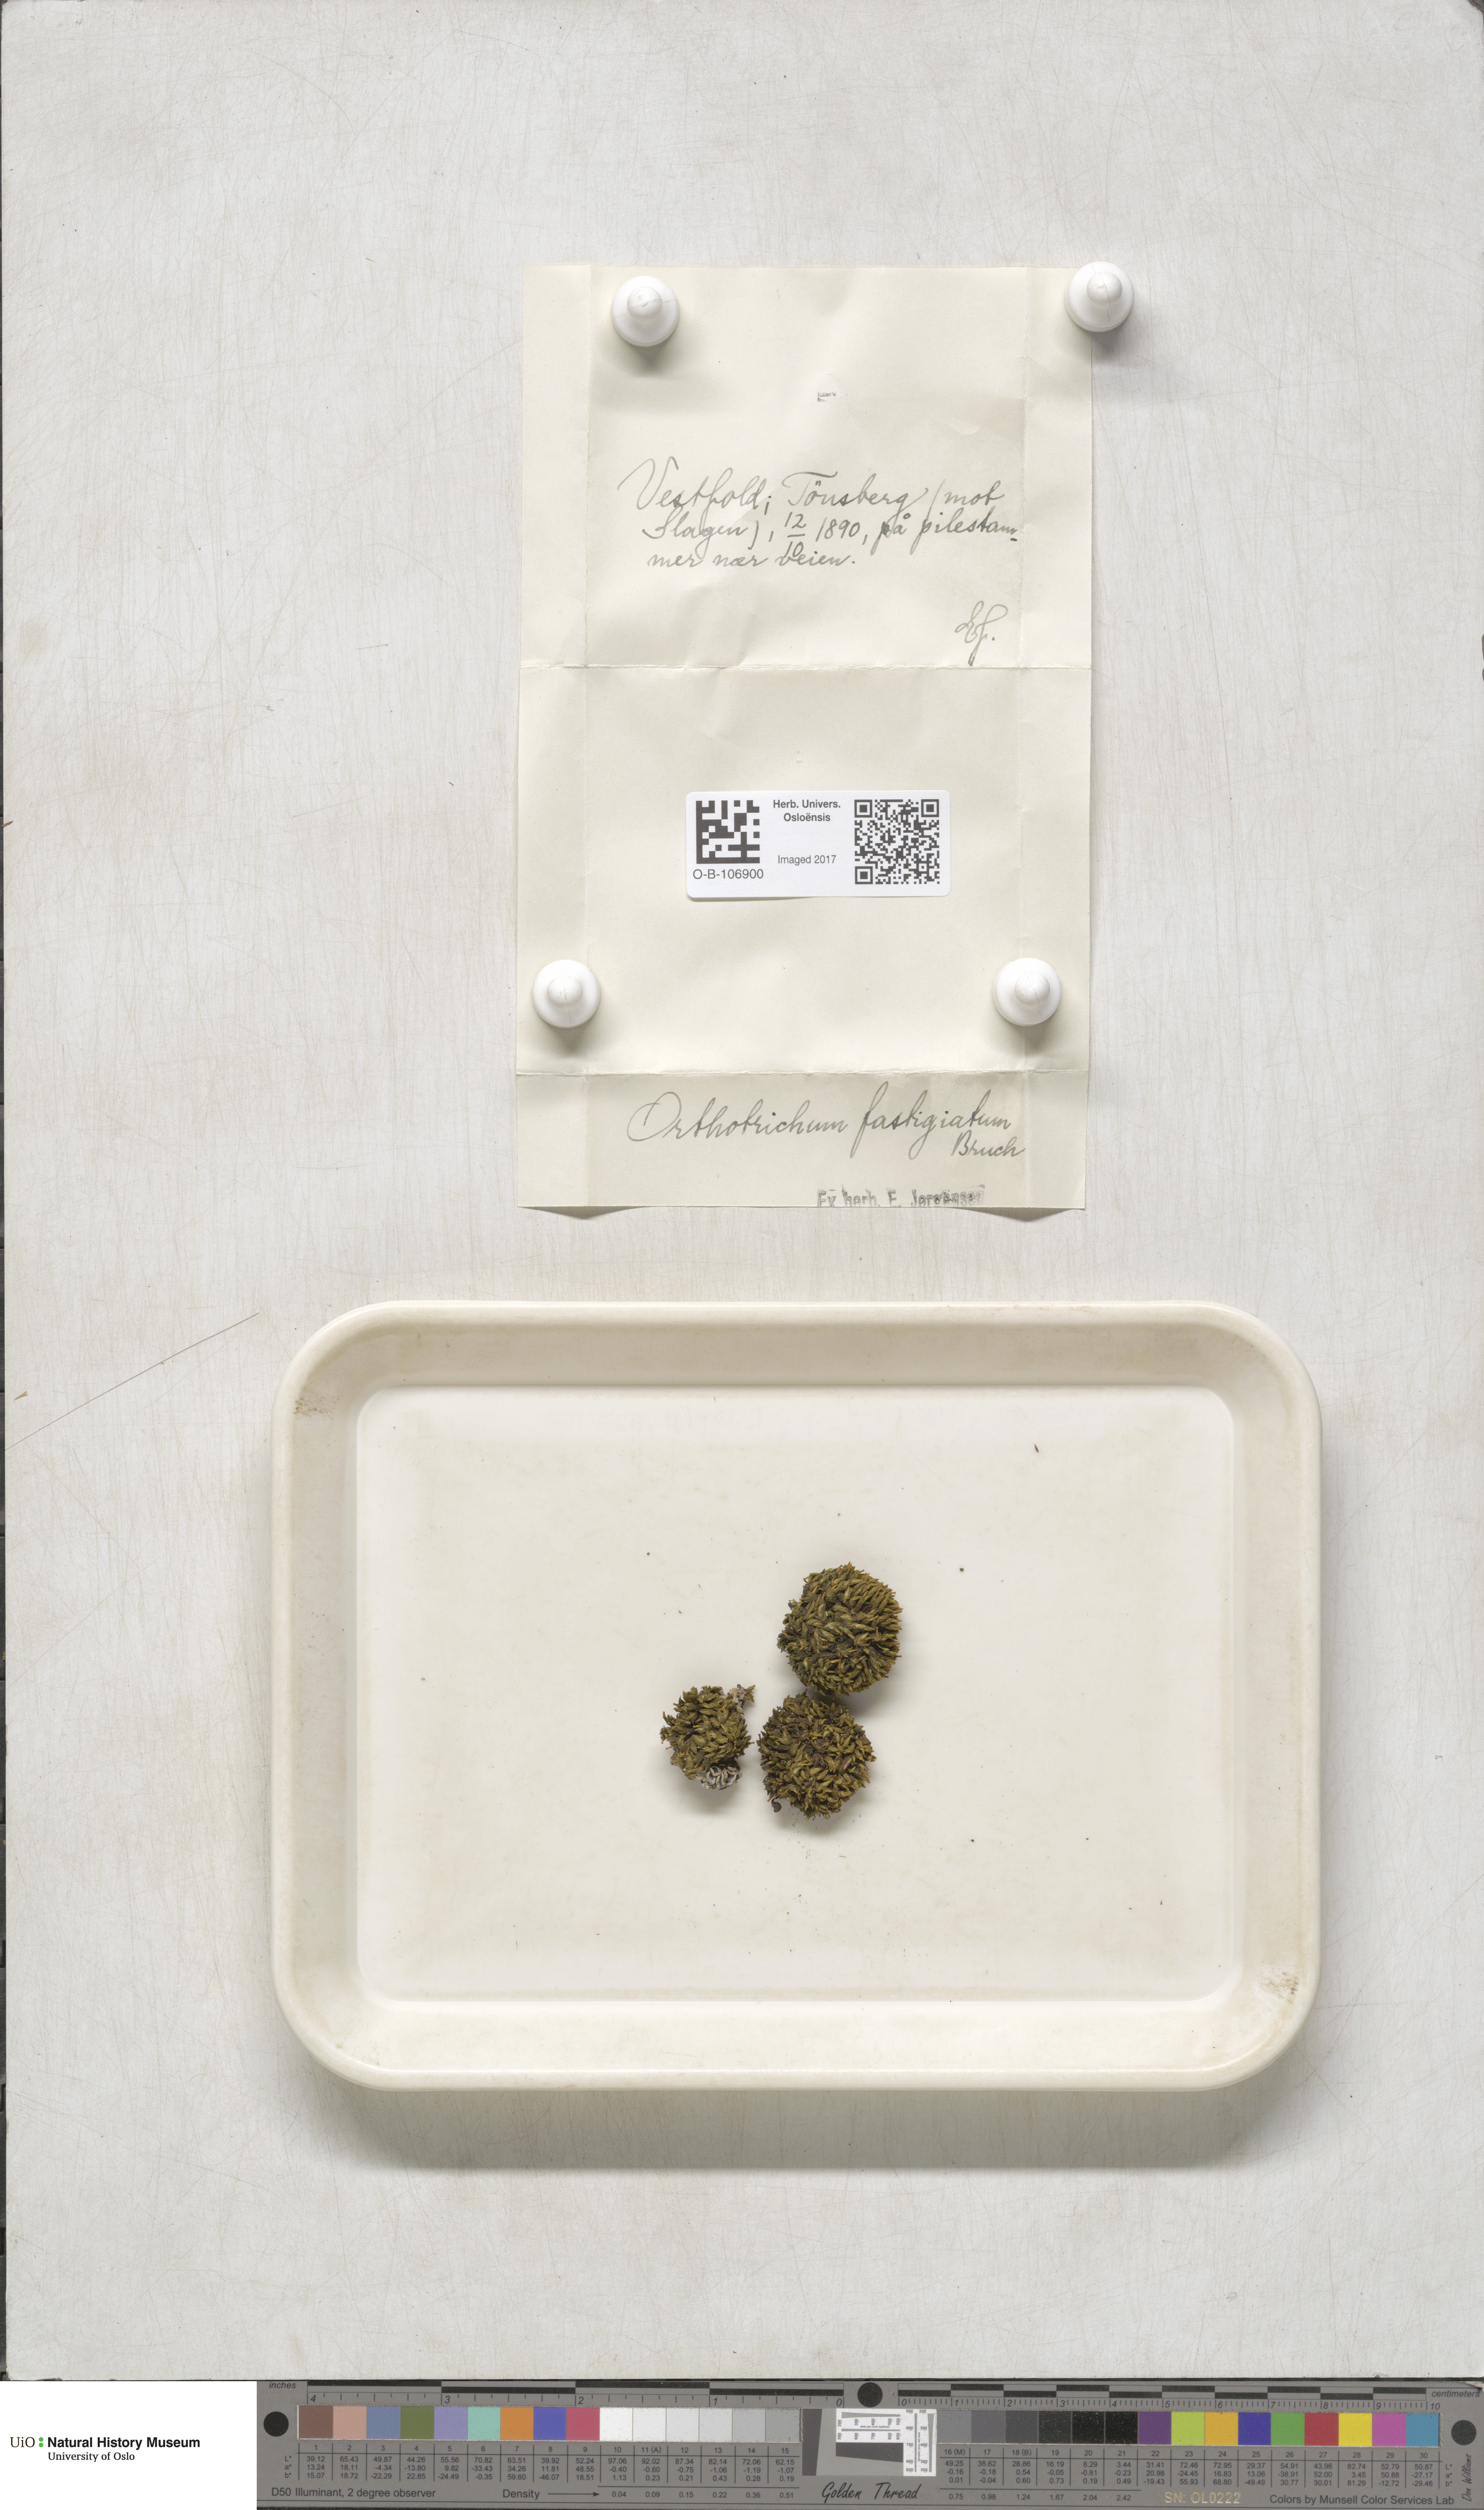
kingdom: Plantae
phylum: Bryophyta
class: Bryopsida
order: Orthotrichales
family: Orthotrichaceae
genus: Lewinskya
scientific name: Lewinskya affinis
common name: Wood bristle-moss
